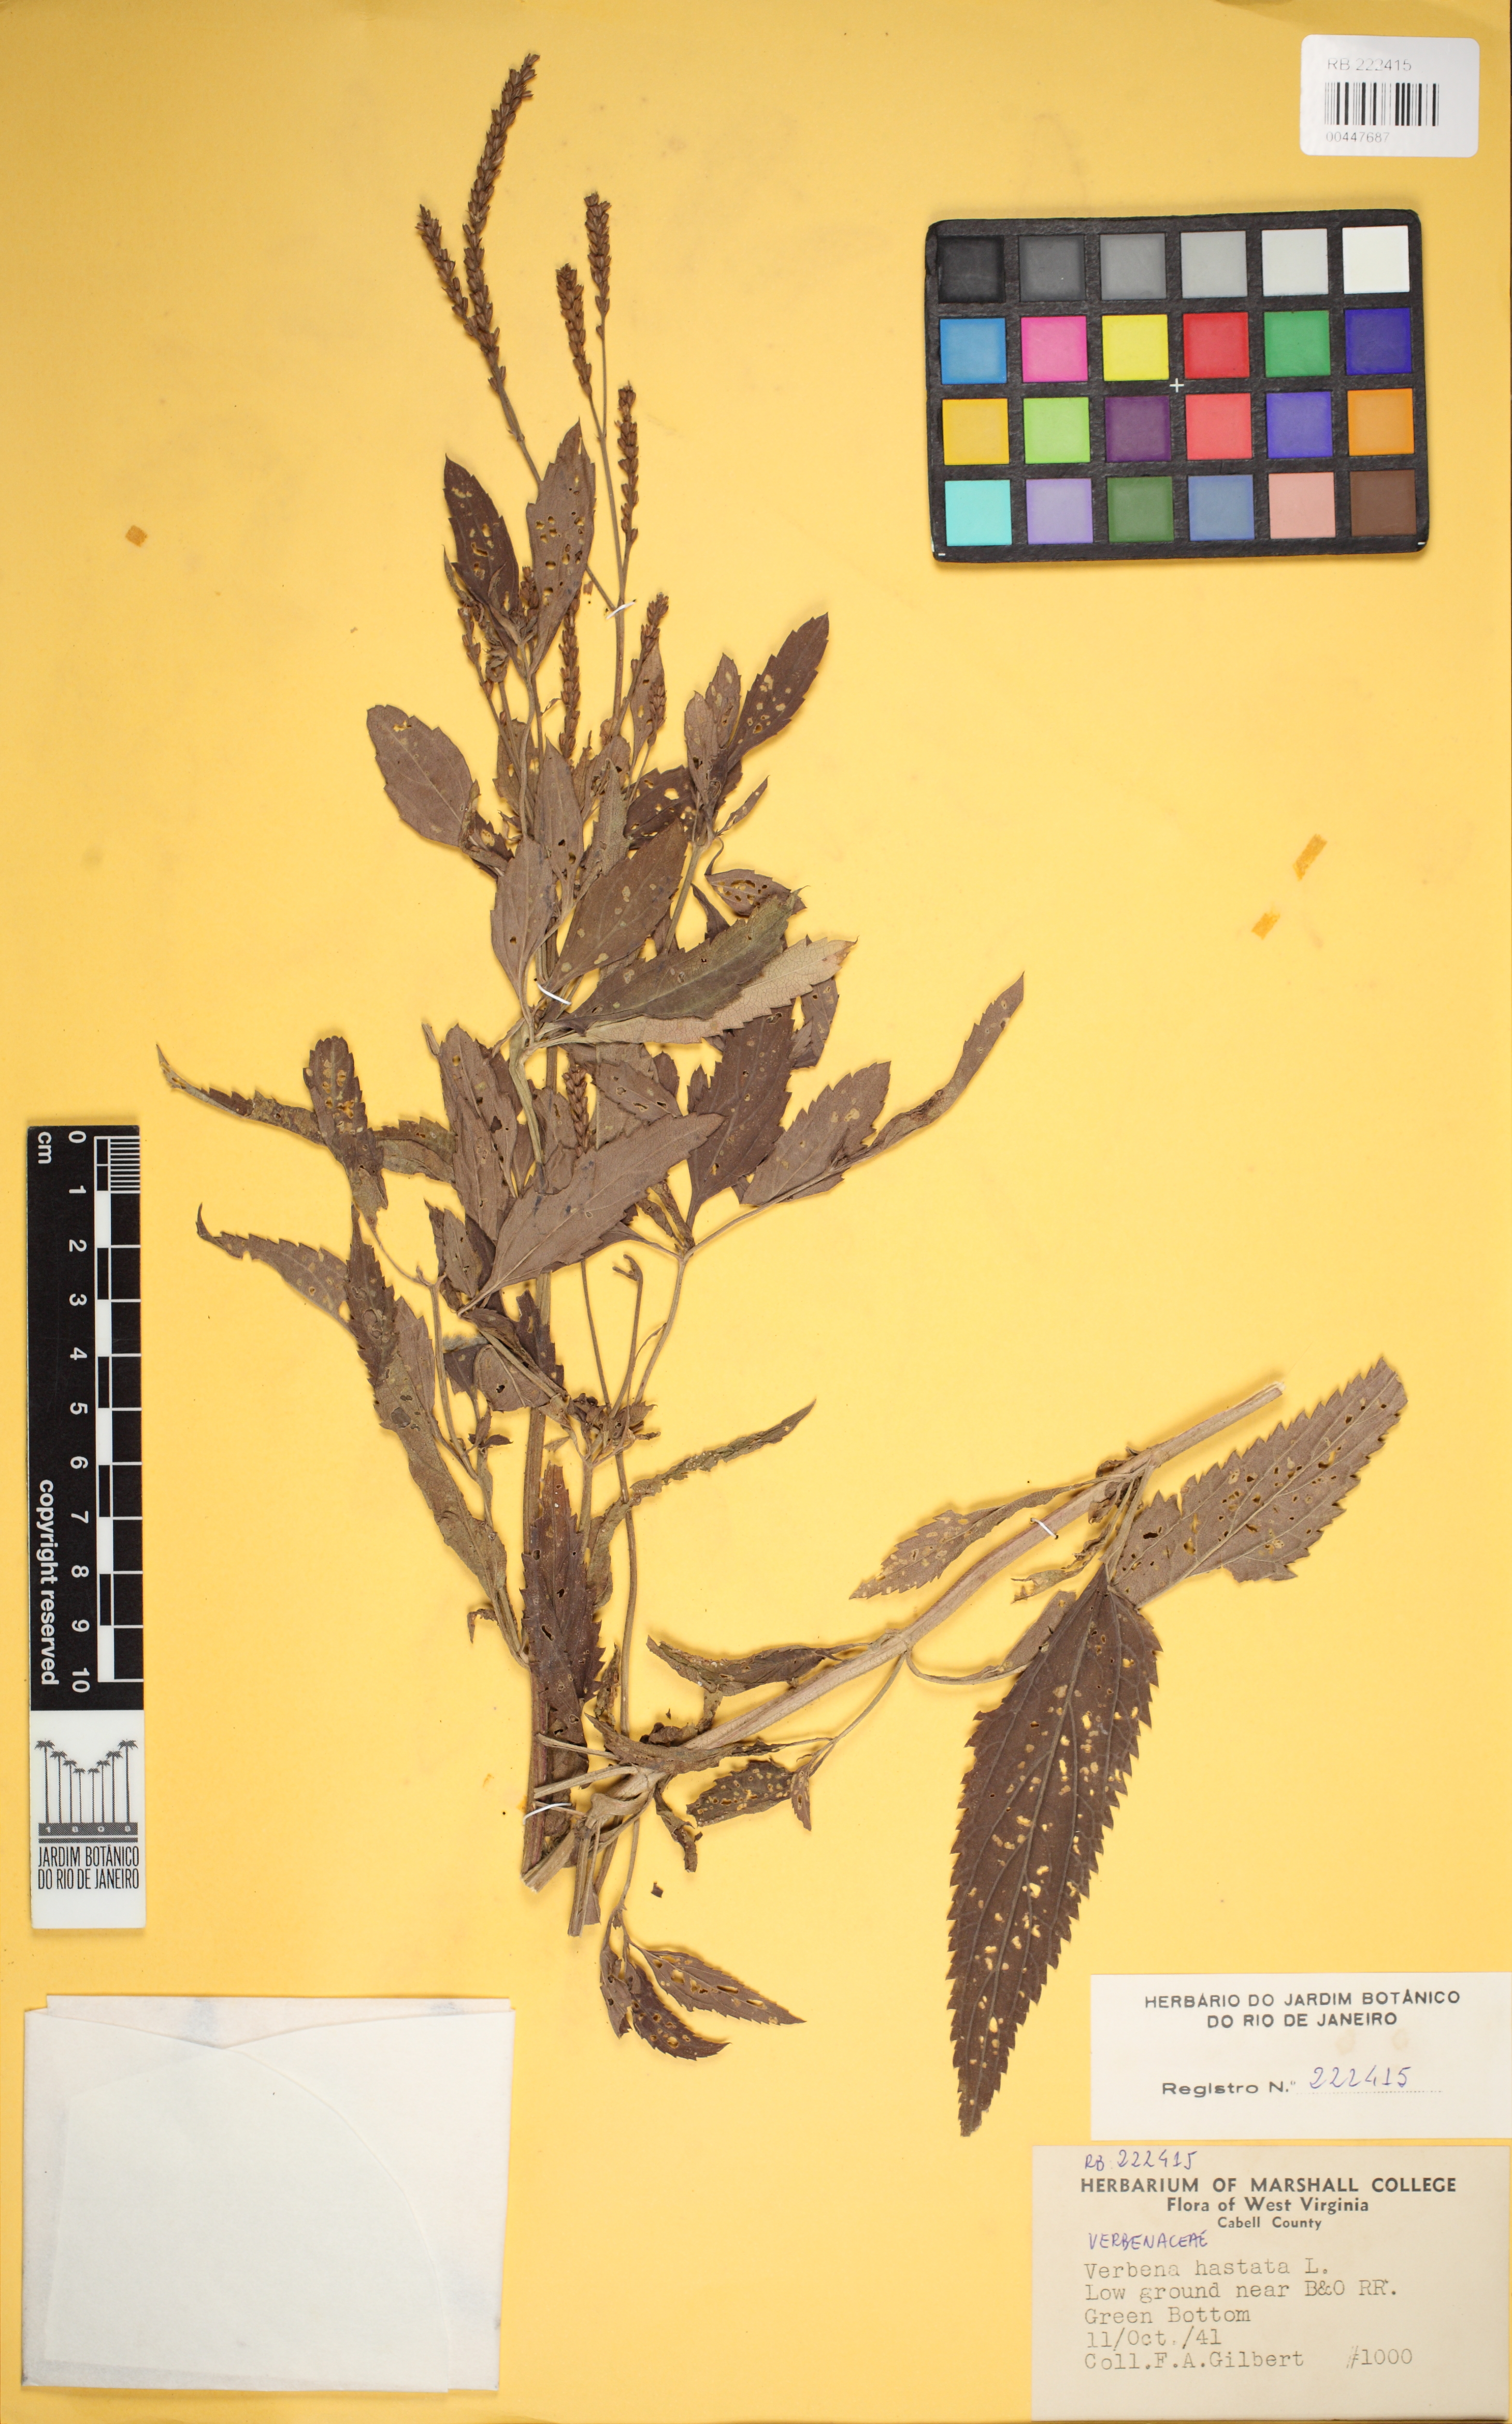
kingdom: Plantae
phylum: Tracheophyta
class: Magnoliopsida
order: Lamiales
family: Verbenaceae
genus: Verbena
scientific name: Verbena hastata
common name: American blue vervain
